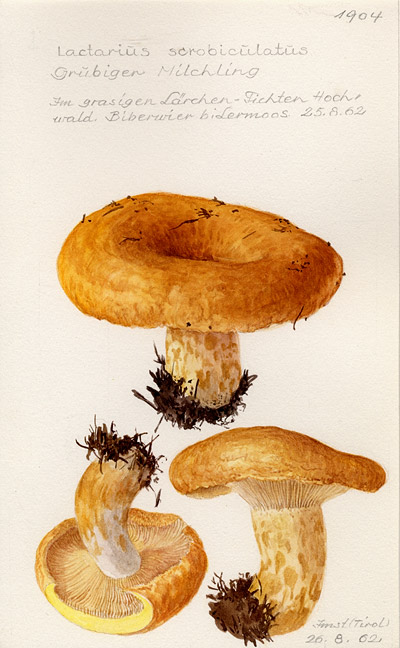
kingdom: Fungi
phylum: Basidiomycota
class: Agaricomycetes
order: Russulales
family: Russulaceae
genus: Lactarius
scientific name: Lactarius scrobiculatus
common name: Spotted milkcap
